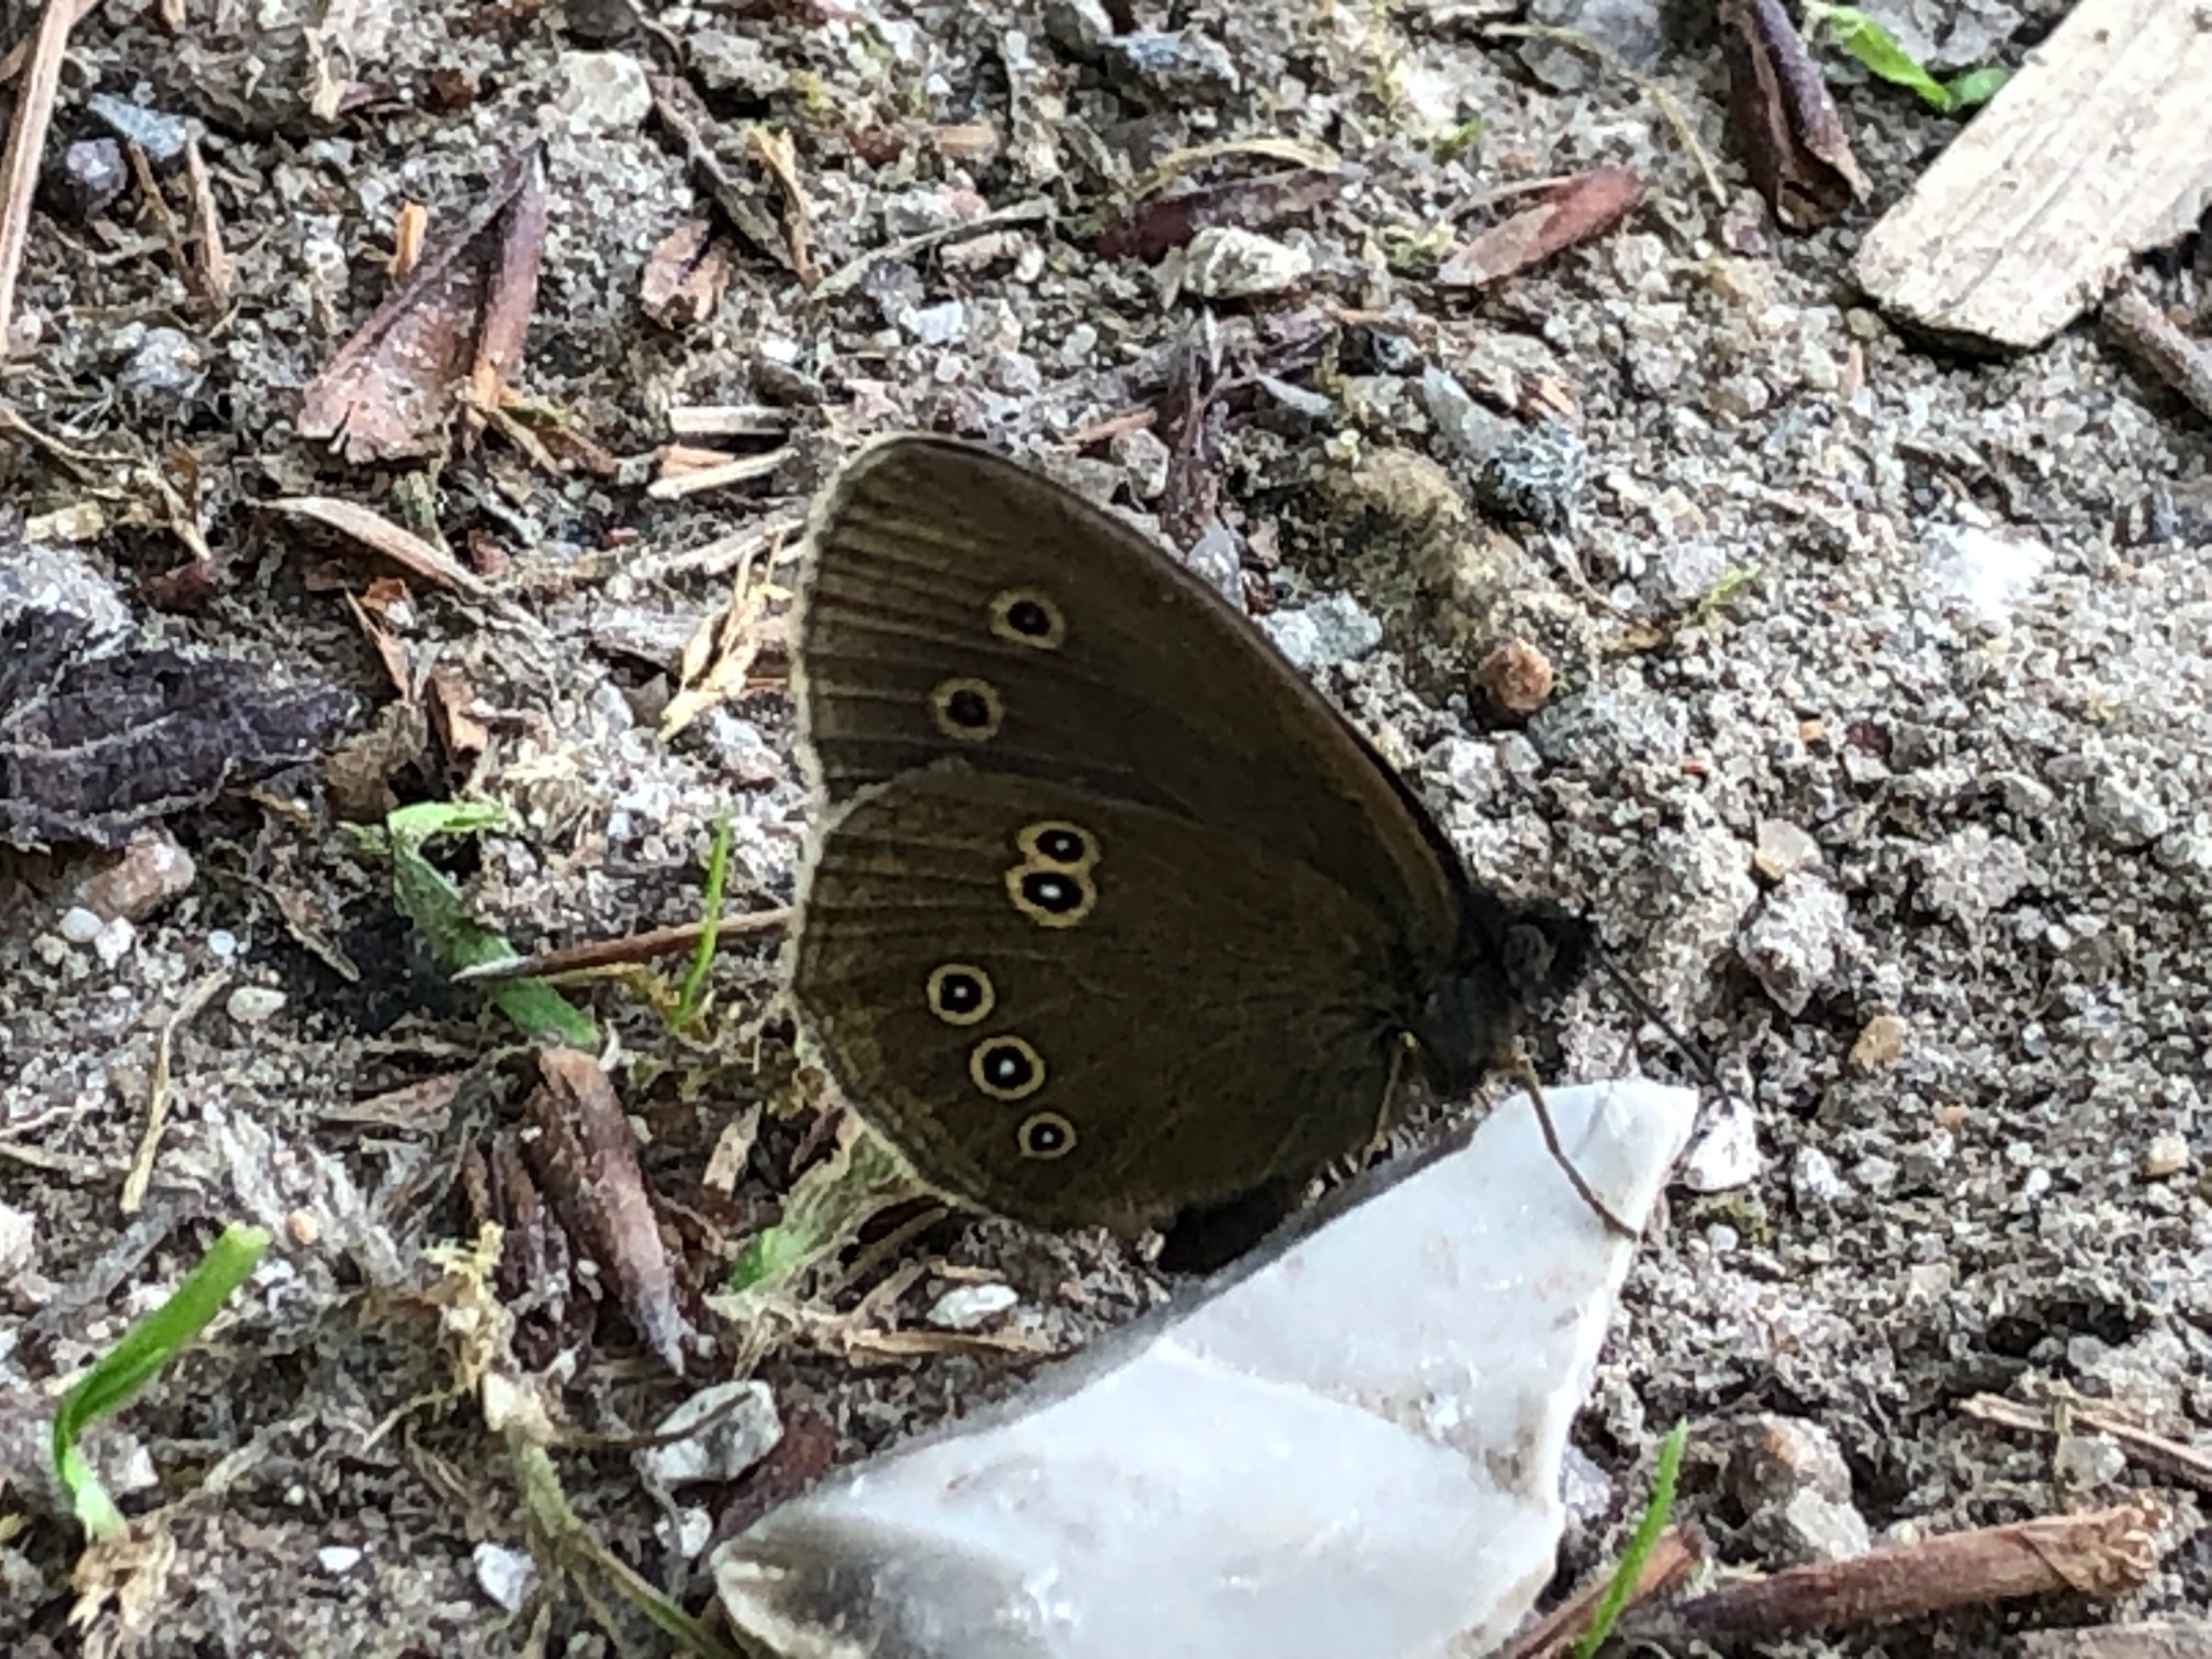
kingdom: Animalia
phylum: Arthropoda
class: Insecta
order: Lepidoptera
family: Nymphalidae
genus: Aphantopus
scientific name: Aphantopus hyperantus
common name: Engrandøje
